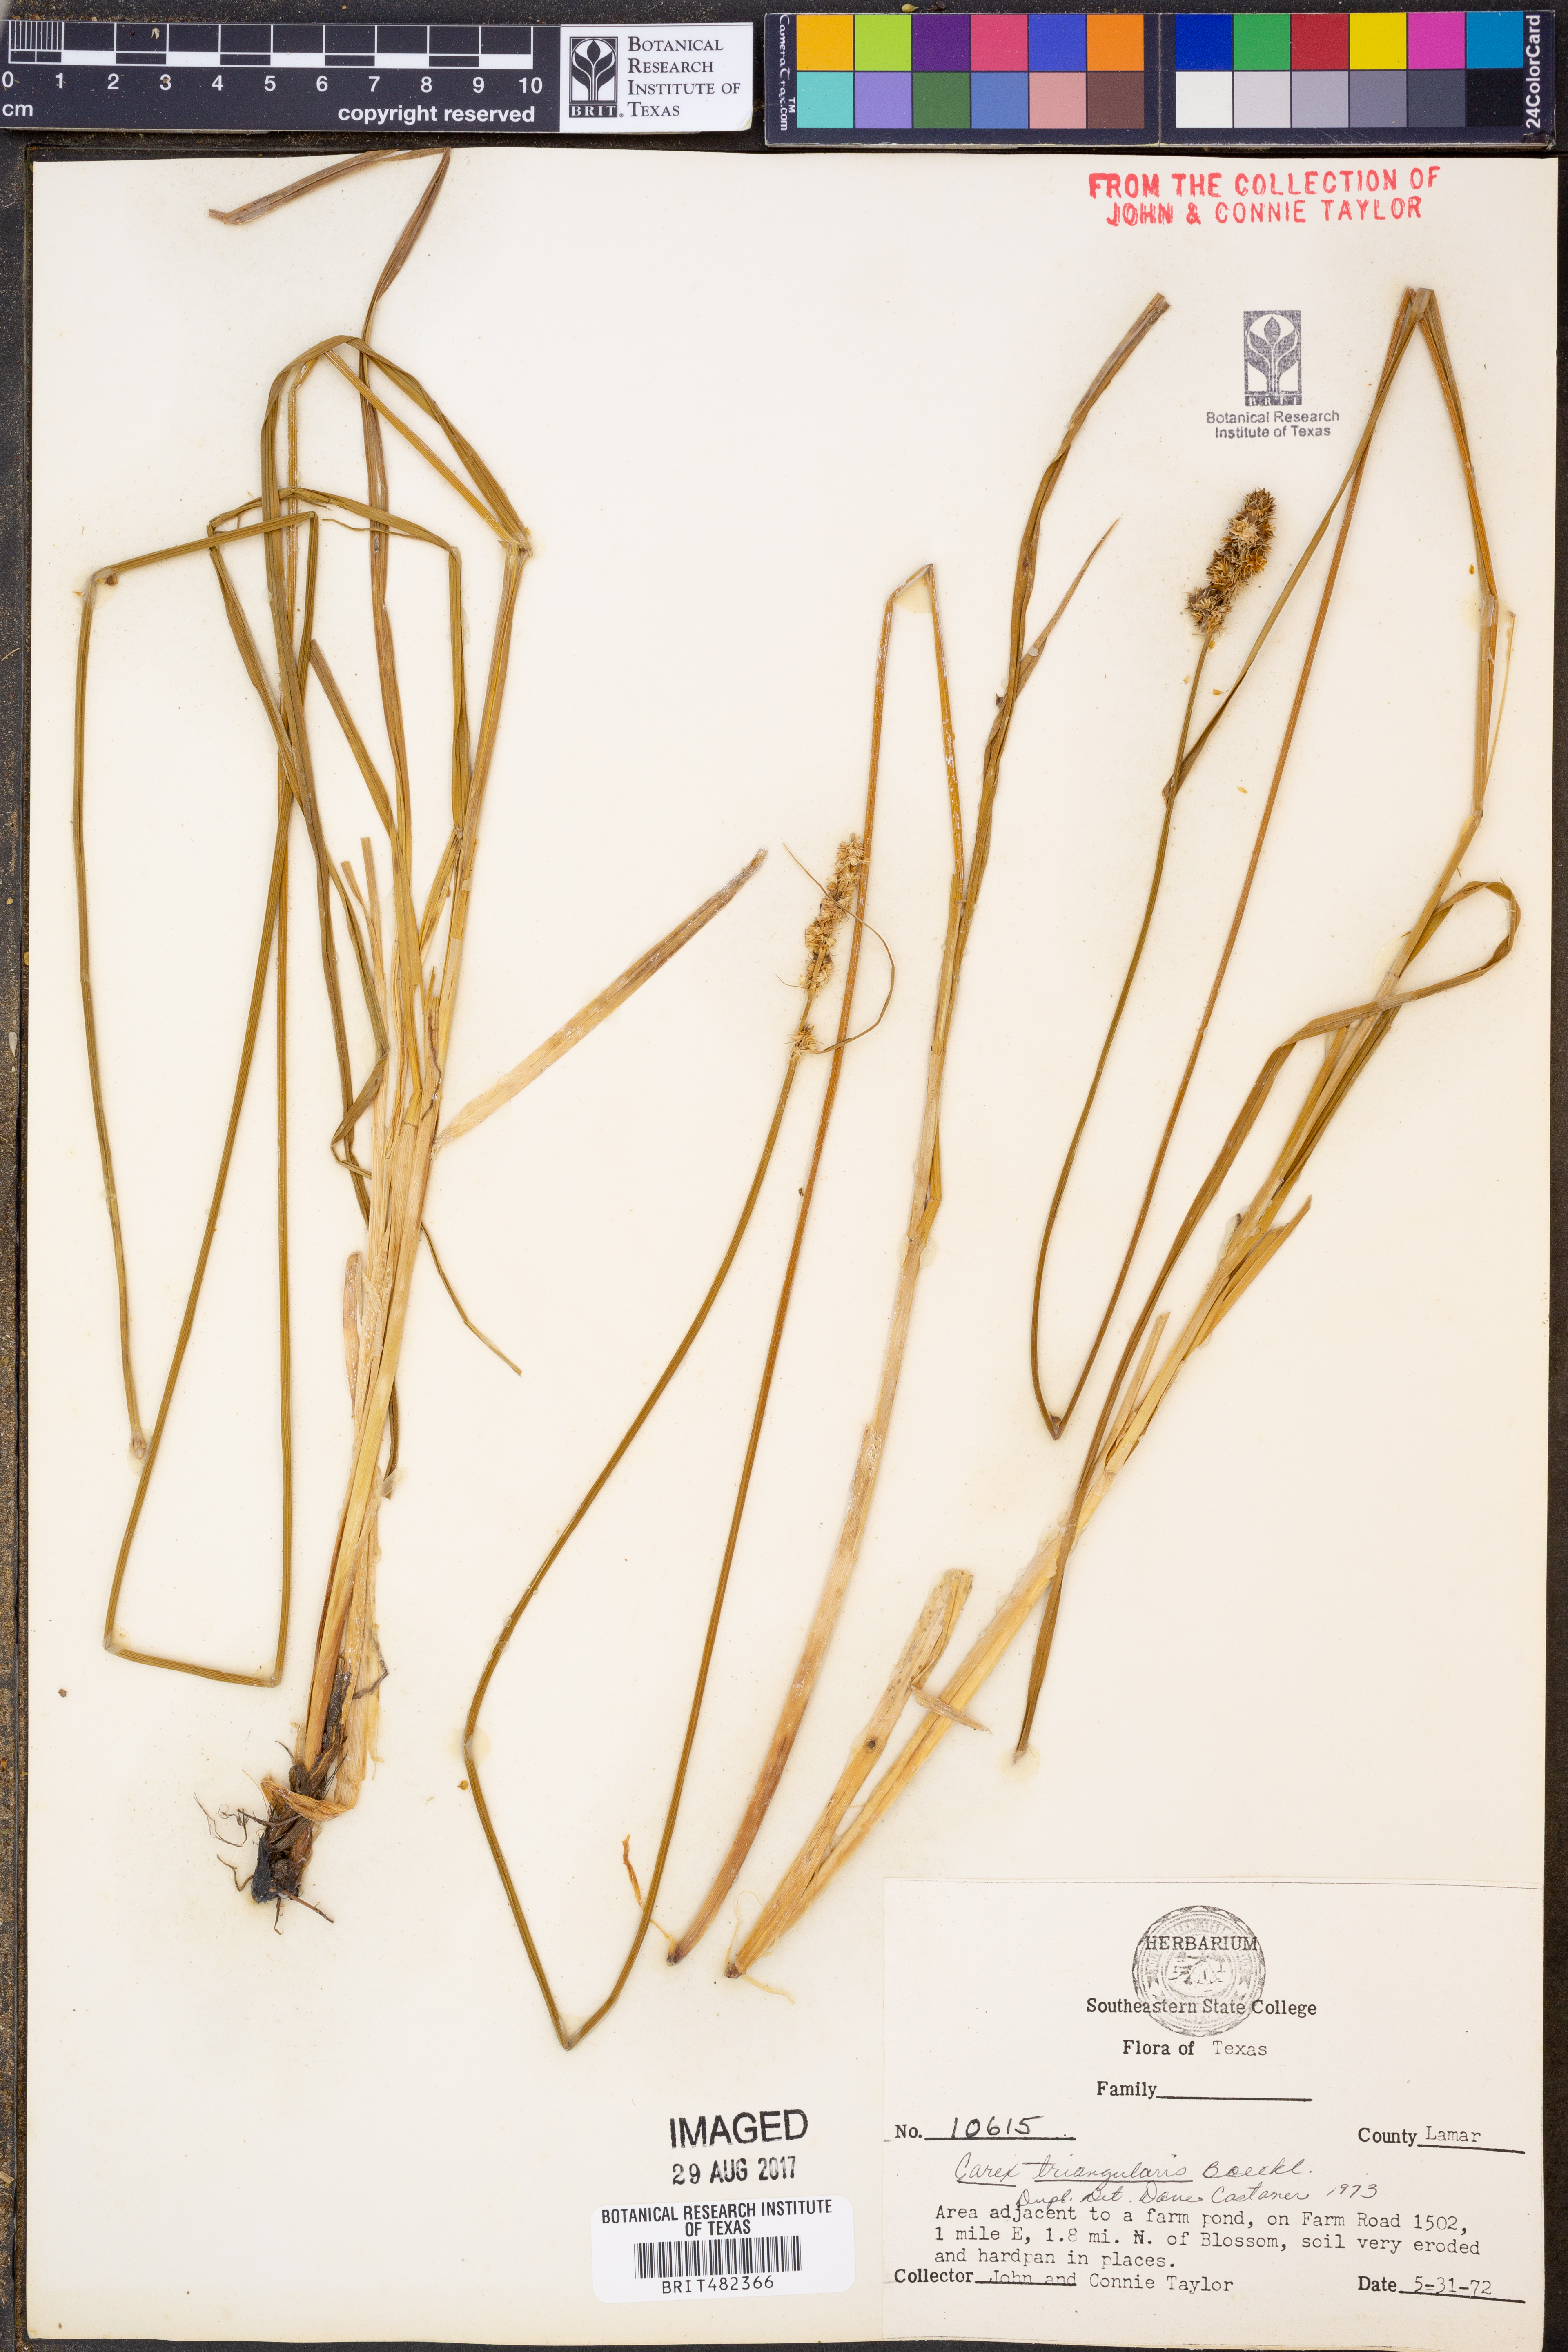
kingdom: Plantae
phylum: Tracheophyta
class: Liliopsida
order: Poales
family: Cyperaceae
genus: Carex
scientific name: Carex triangularis
